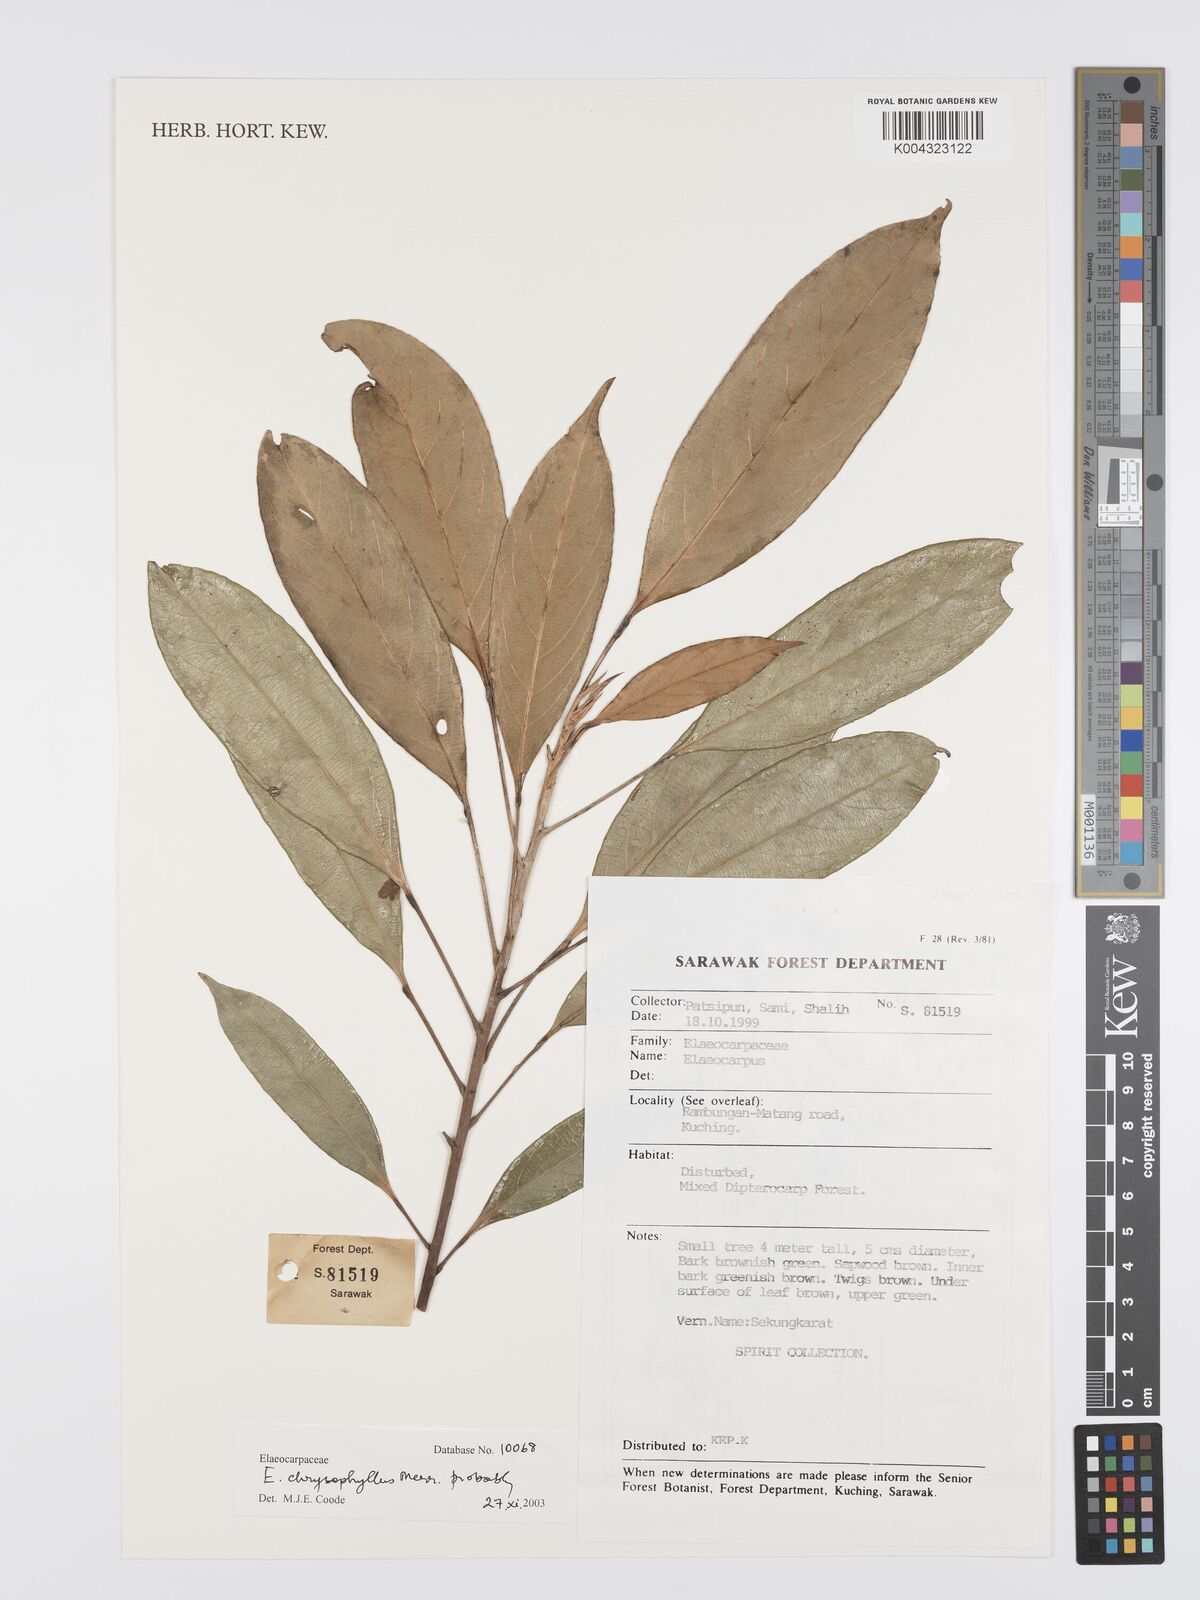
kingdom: Plantae
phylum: Tracheophyta
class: Magnoliopsida
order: Oxalidales
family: Elaeocarpaceae
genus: Elaeocarpus
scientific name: Elaeocarpus chrysophyllus
